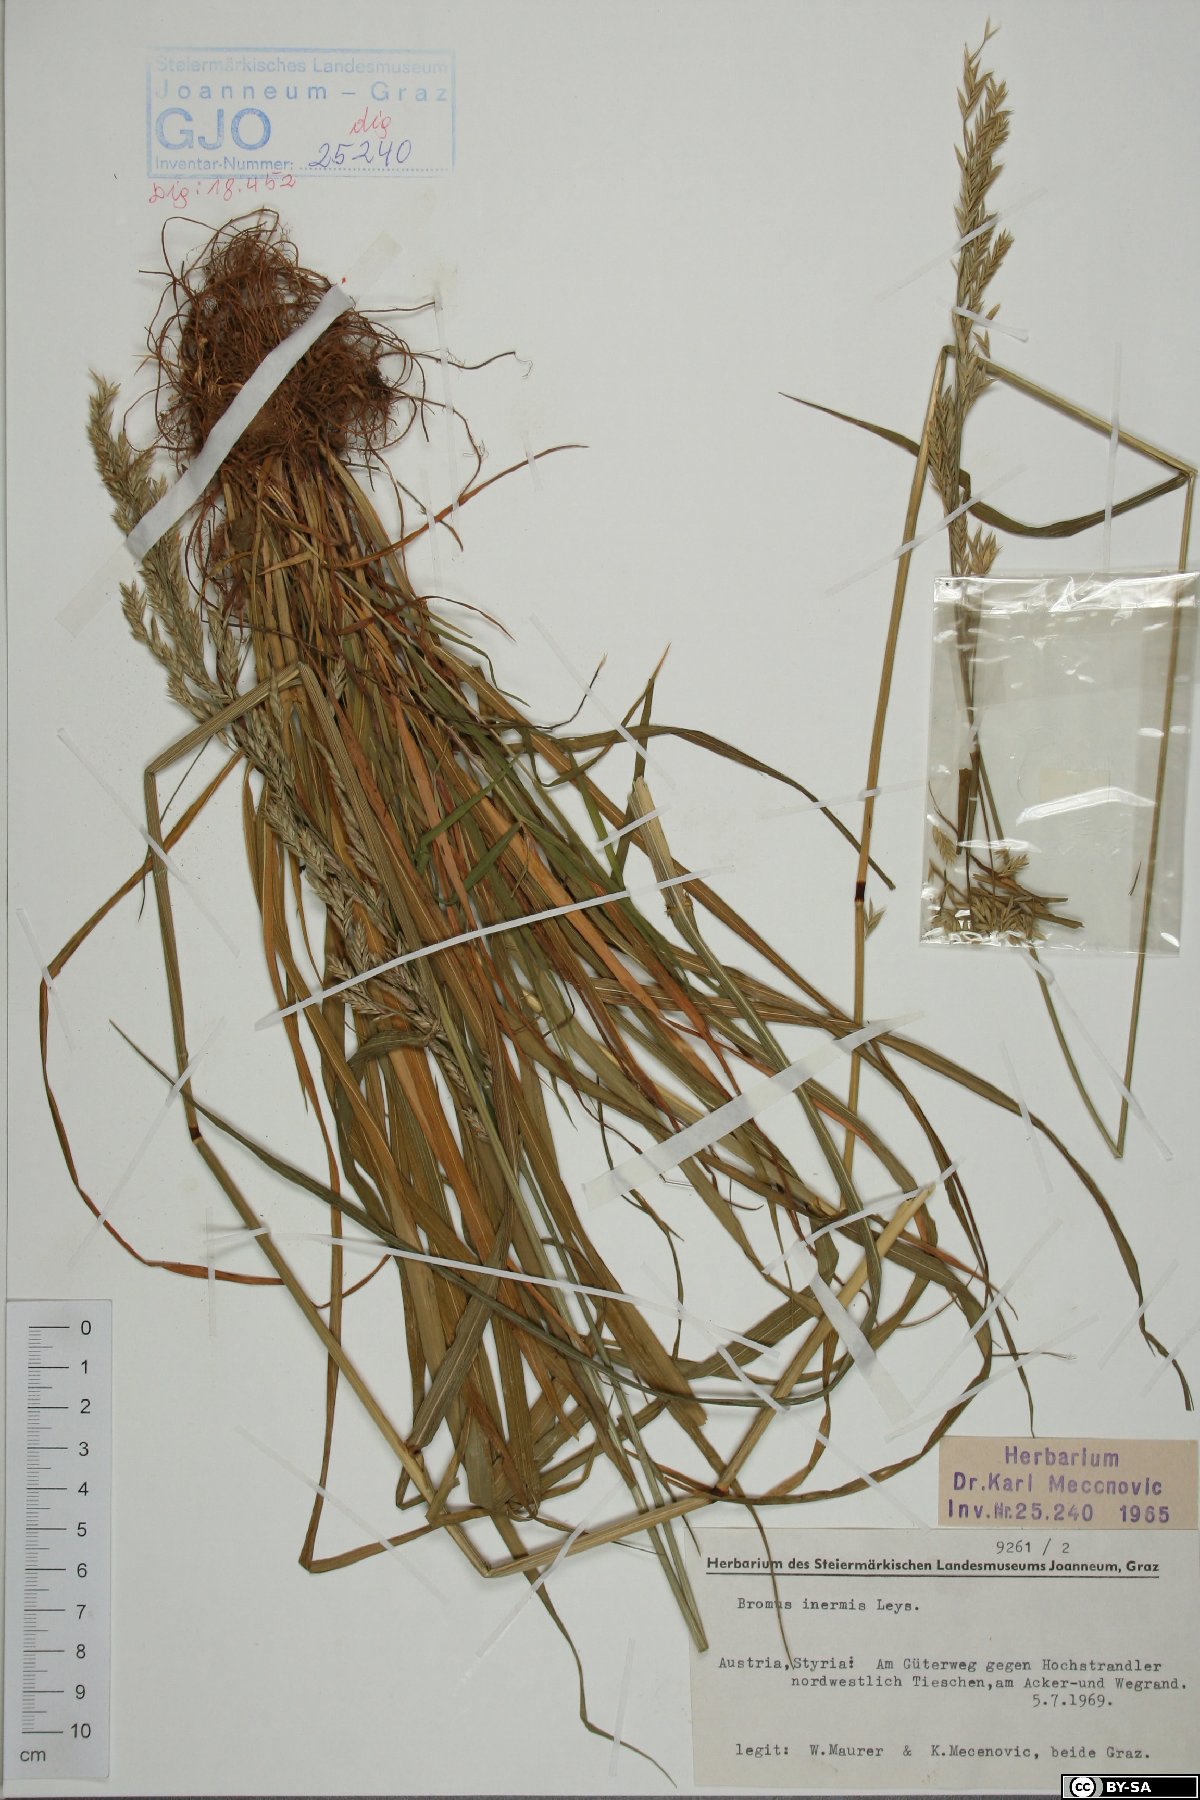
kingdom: Plantae
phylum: Tracheophyta
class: Liliopsida
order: Poales
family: Poaceae
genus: Bromus
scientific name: Bromus inermis
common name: Smooth brome
